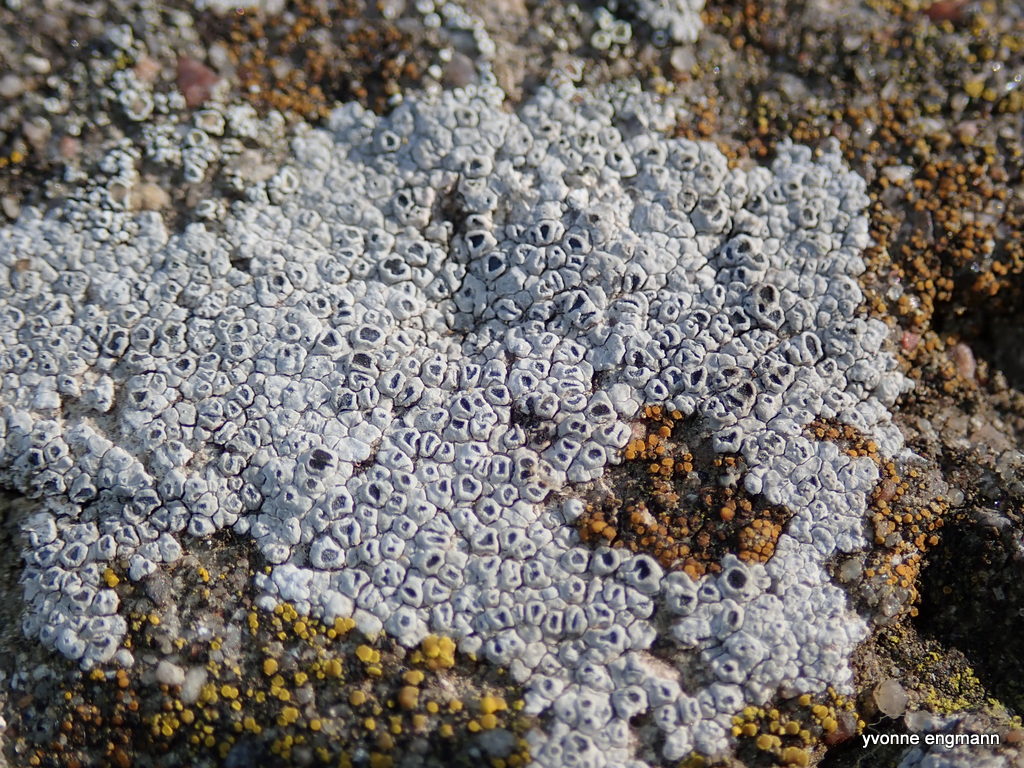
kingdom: Fungi
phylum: Ascomycota
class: Lecanoromycetes
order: Pertusariales
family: Megasporaceae
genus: Circinaria
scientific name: Circinaria contorta
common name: indviklet hulskivelav
